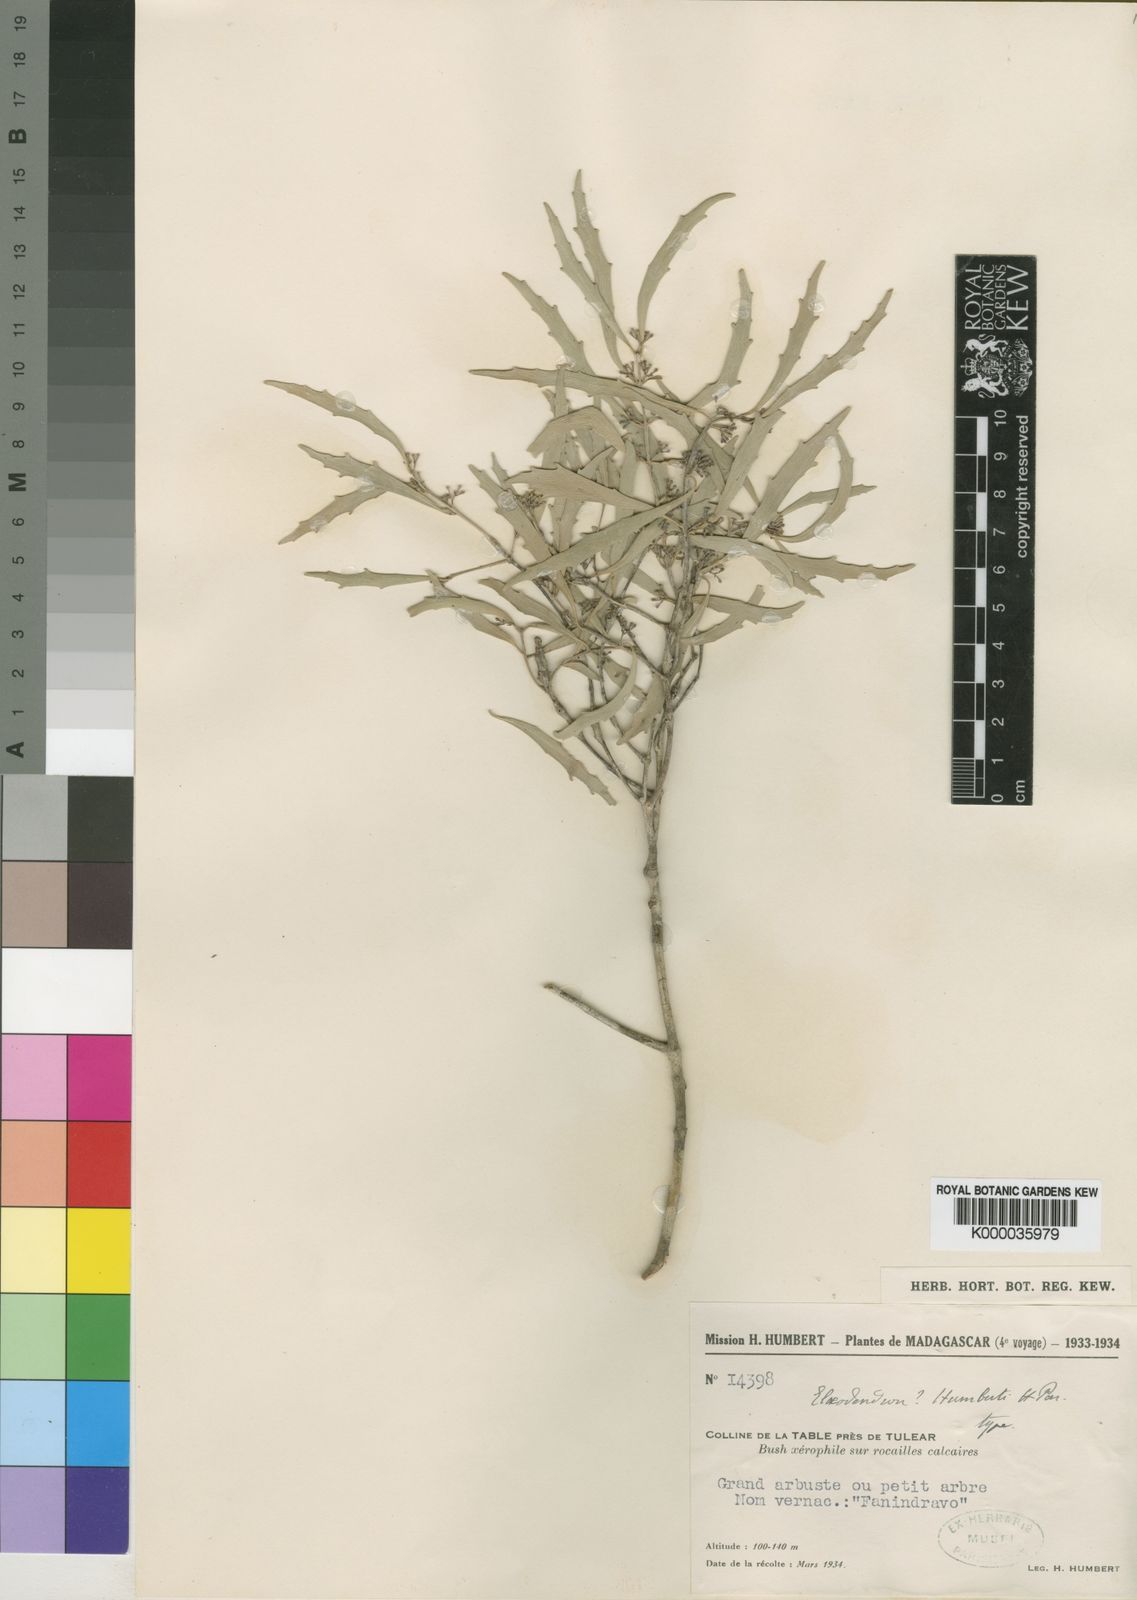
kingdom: Plantae
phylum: Tracheophyta
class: Magnoliopsida
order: Celastrales
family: Celastraceae
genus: Elaeodendron
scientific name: Elaeodendron humbertii
